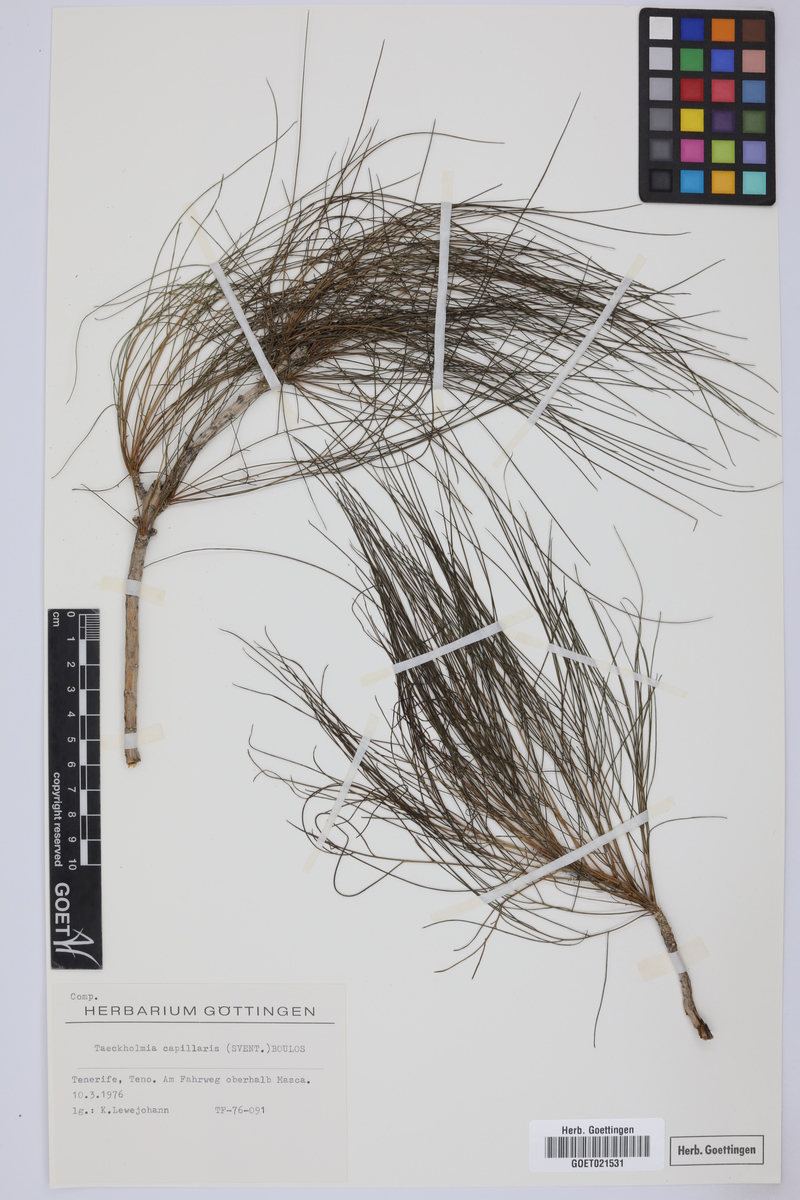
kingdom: Plantae
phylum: Tracheophyta
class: Magnoliopsida
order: Asterales
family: Asteraceae
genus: Sonchus
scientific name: Sonchus capillaris
